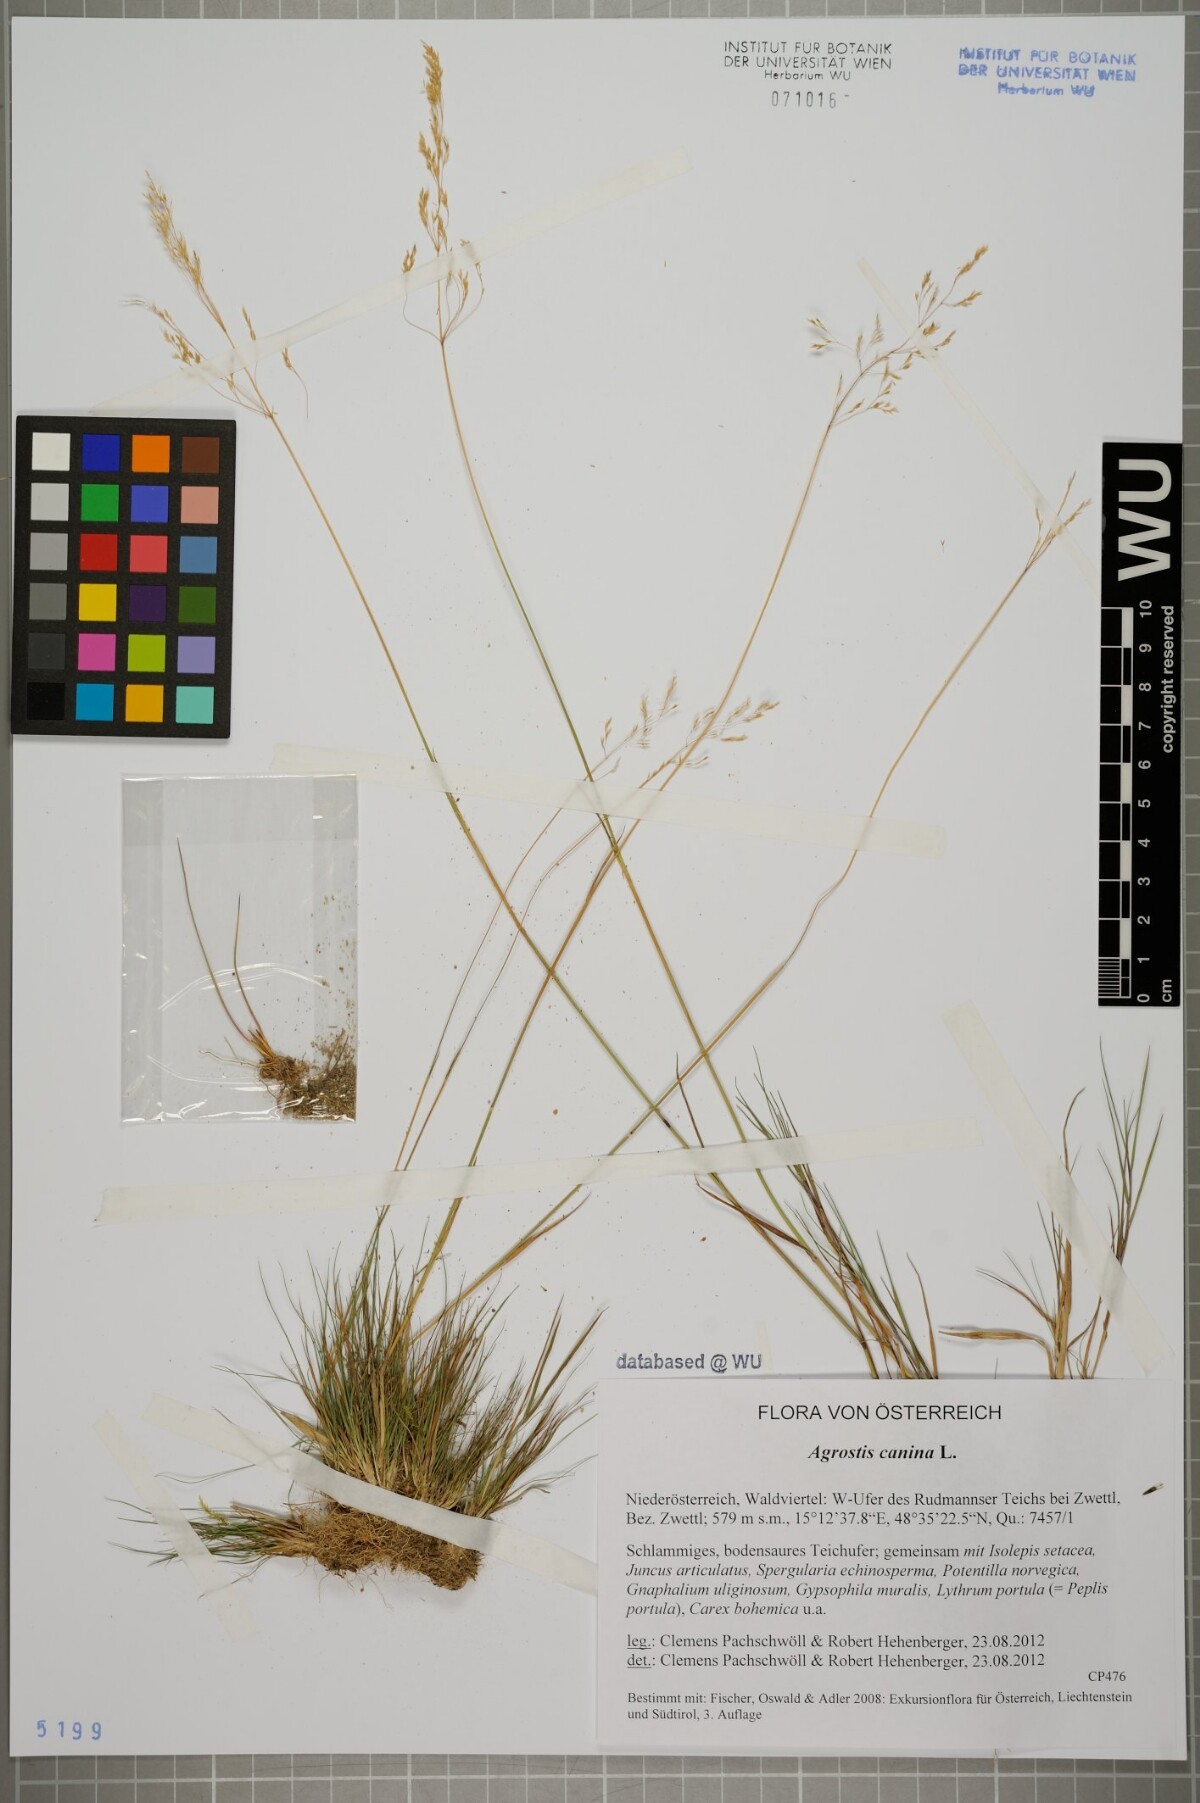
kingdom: Plantae
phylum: Tracheophyta
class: Liliopsida
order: Poales
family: Poaceae
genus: Agrostis
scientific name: Agrostis canina
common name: Velvet bent
